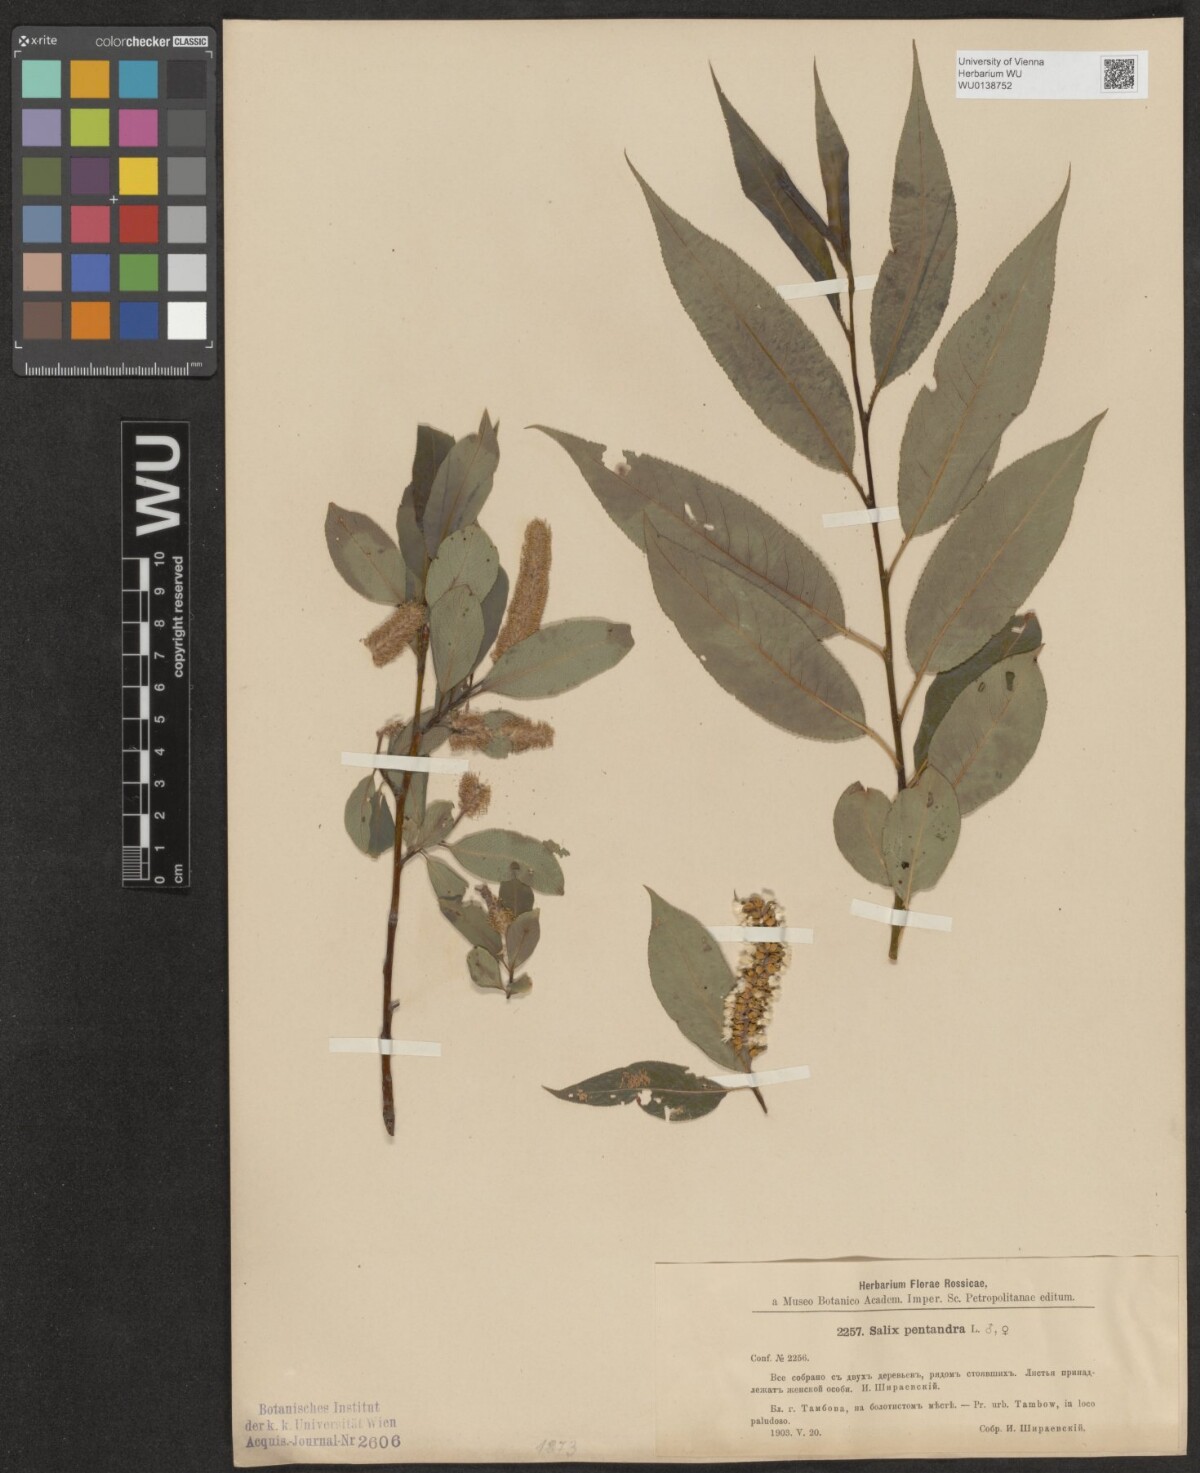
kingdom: Plantae
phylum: Tracheophyta
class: Magnoliopsida
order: Malpighiales
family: Salicaceae
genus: Salix
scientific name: Salix pentandra
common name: Bay willow
